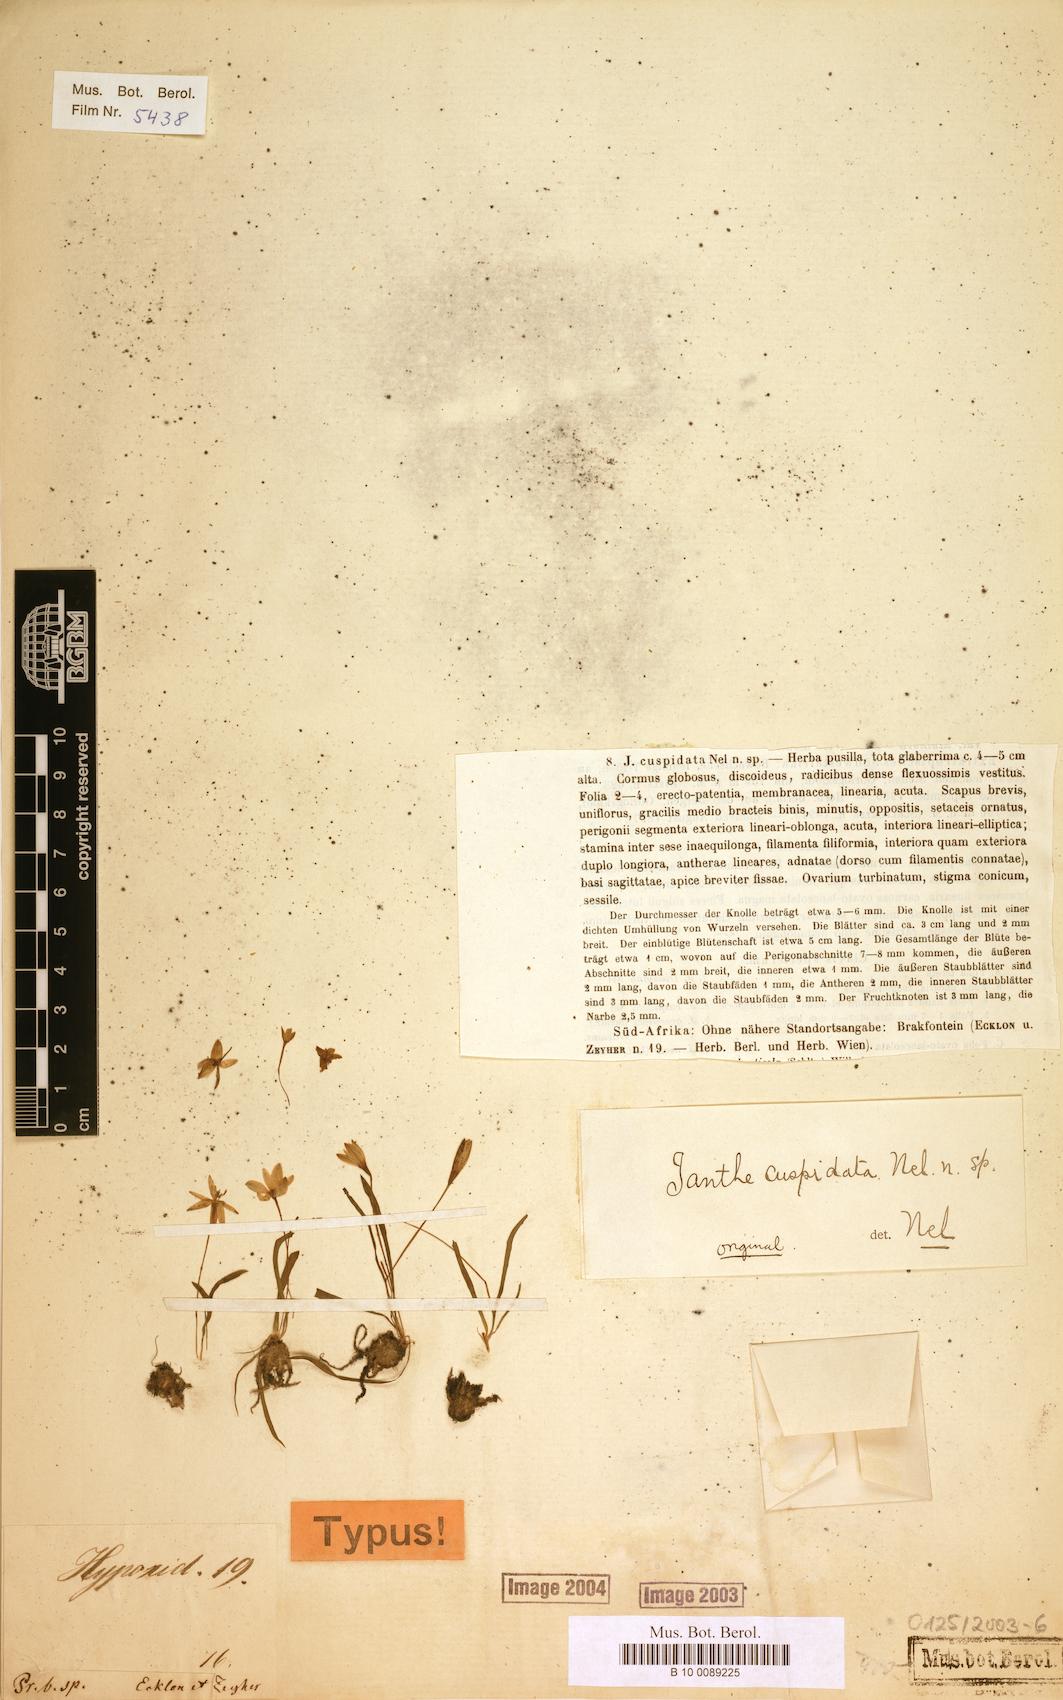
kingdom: Plantae
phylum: Tracheophyta
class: Liliopsida
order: Asparagales
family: Hypoxidaceae
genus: Pauridia
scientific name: Pauridia gracilipes
